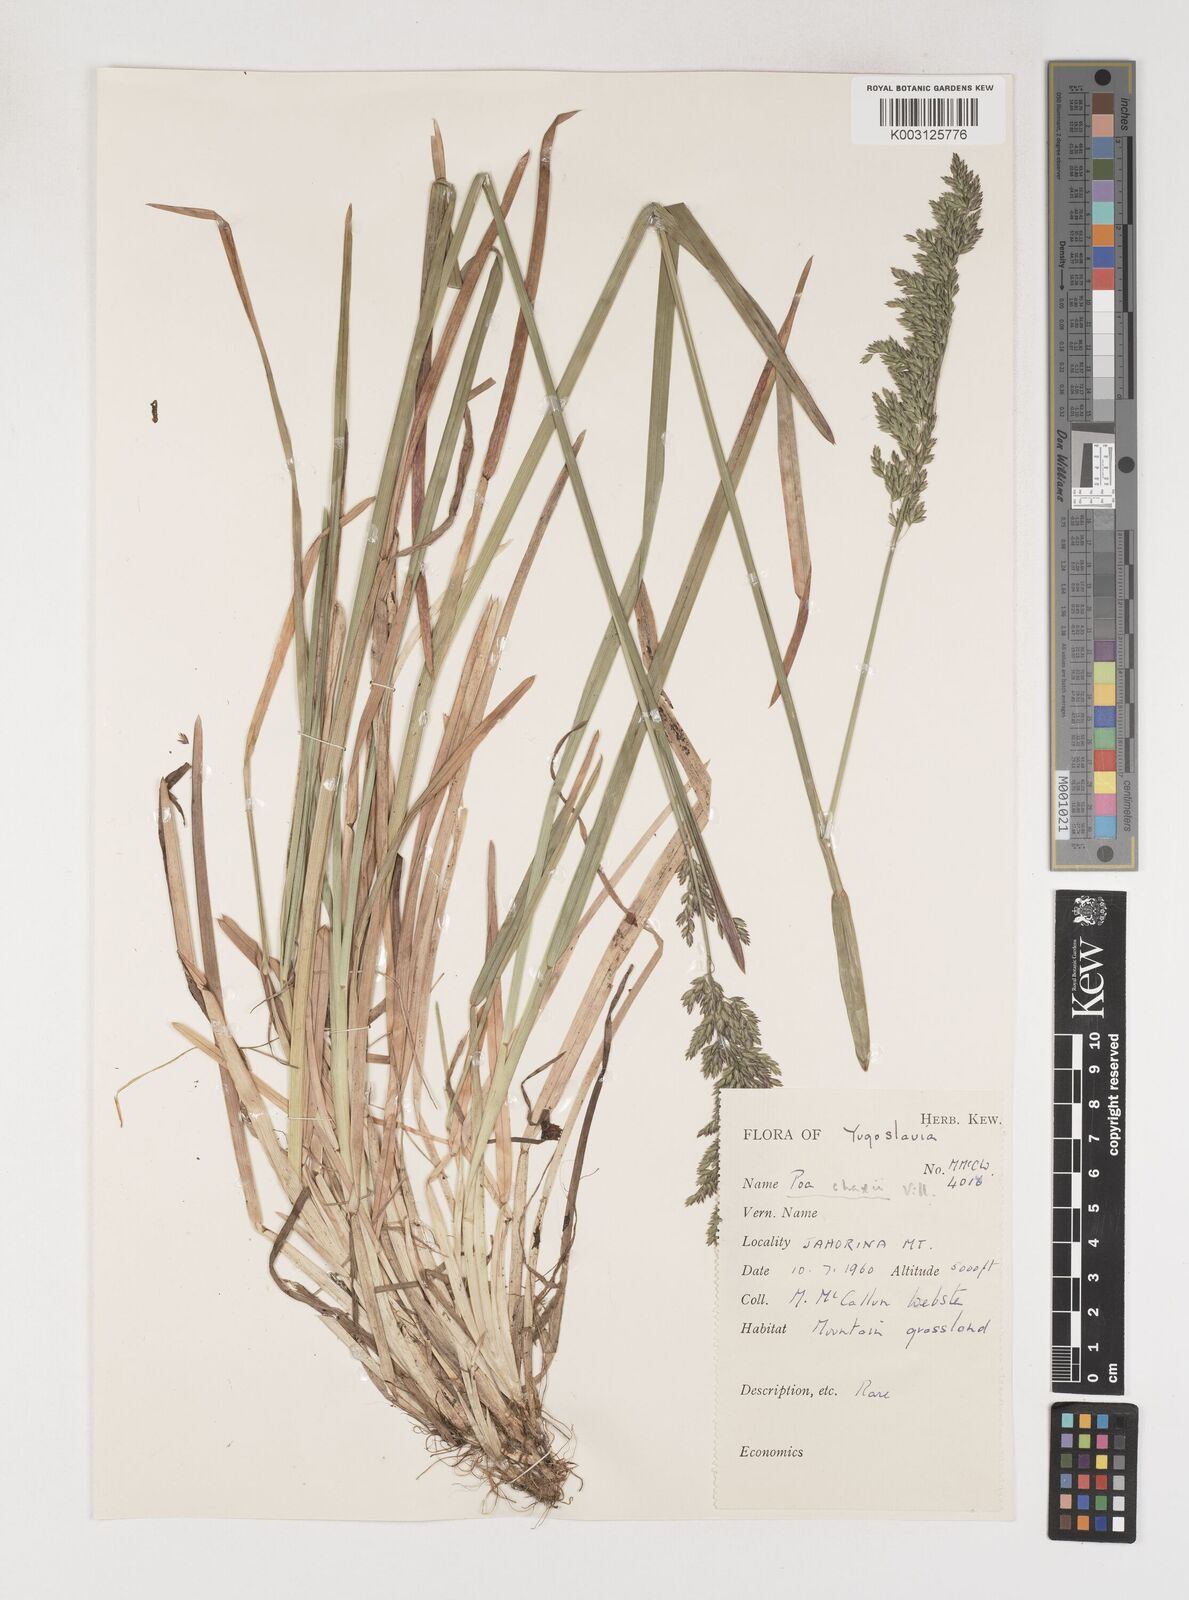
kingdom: Plantae
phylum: Tracheophyta
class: Liliopsida
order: Poales
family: Poaceae
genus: Poa
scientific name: Poa chaixii
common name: Broad-leaved meadow-grass
